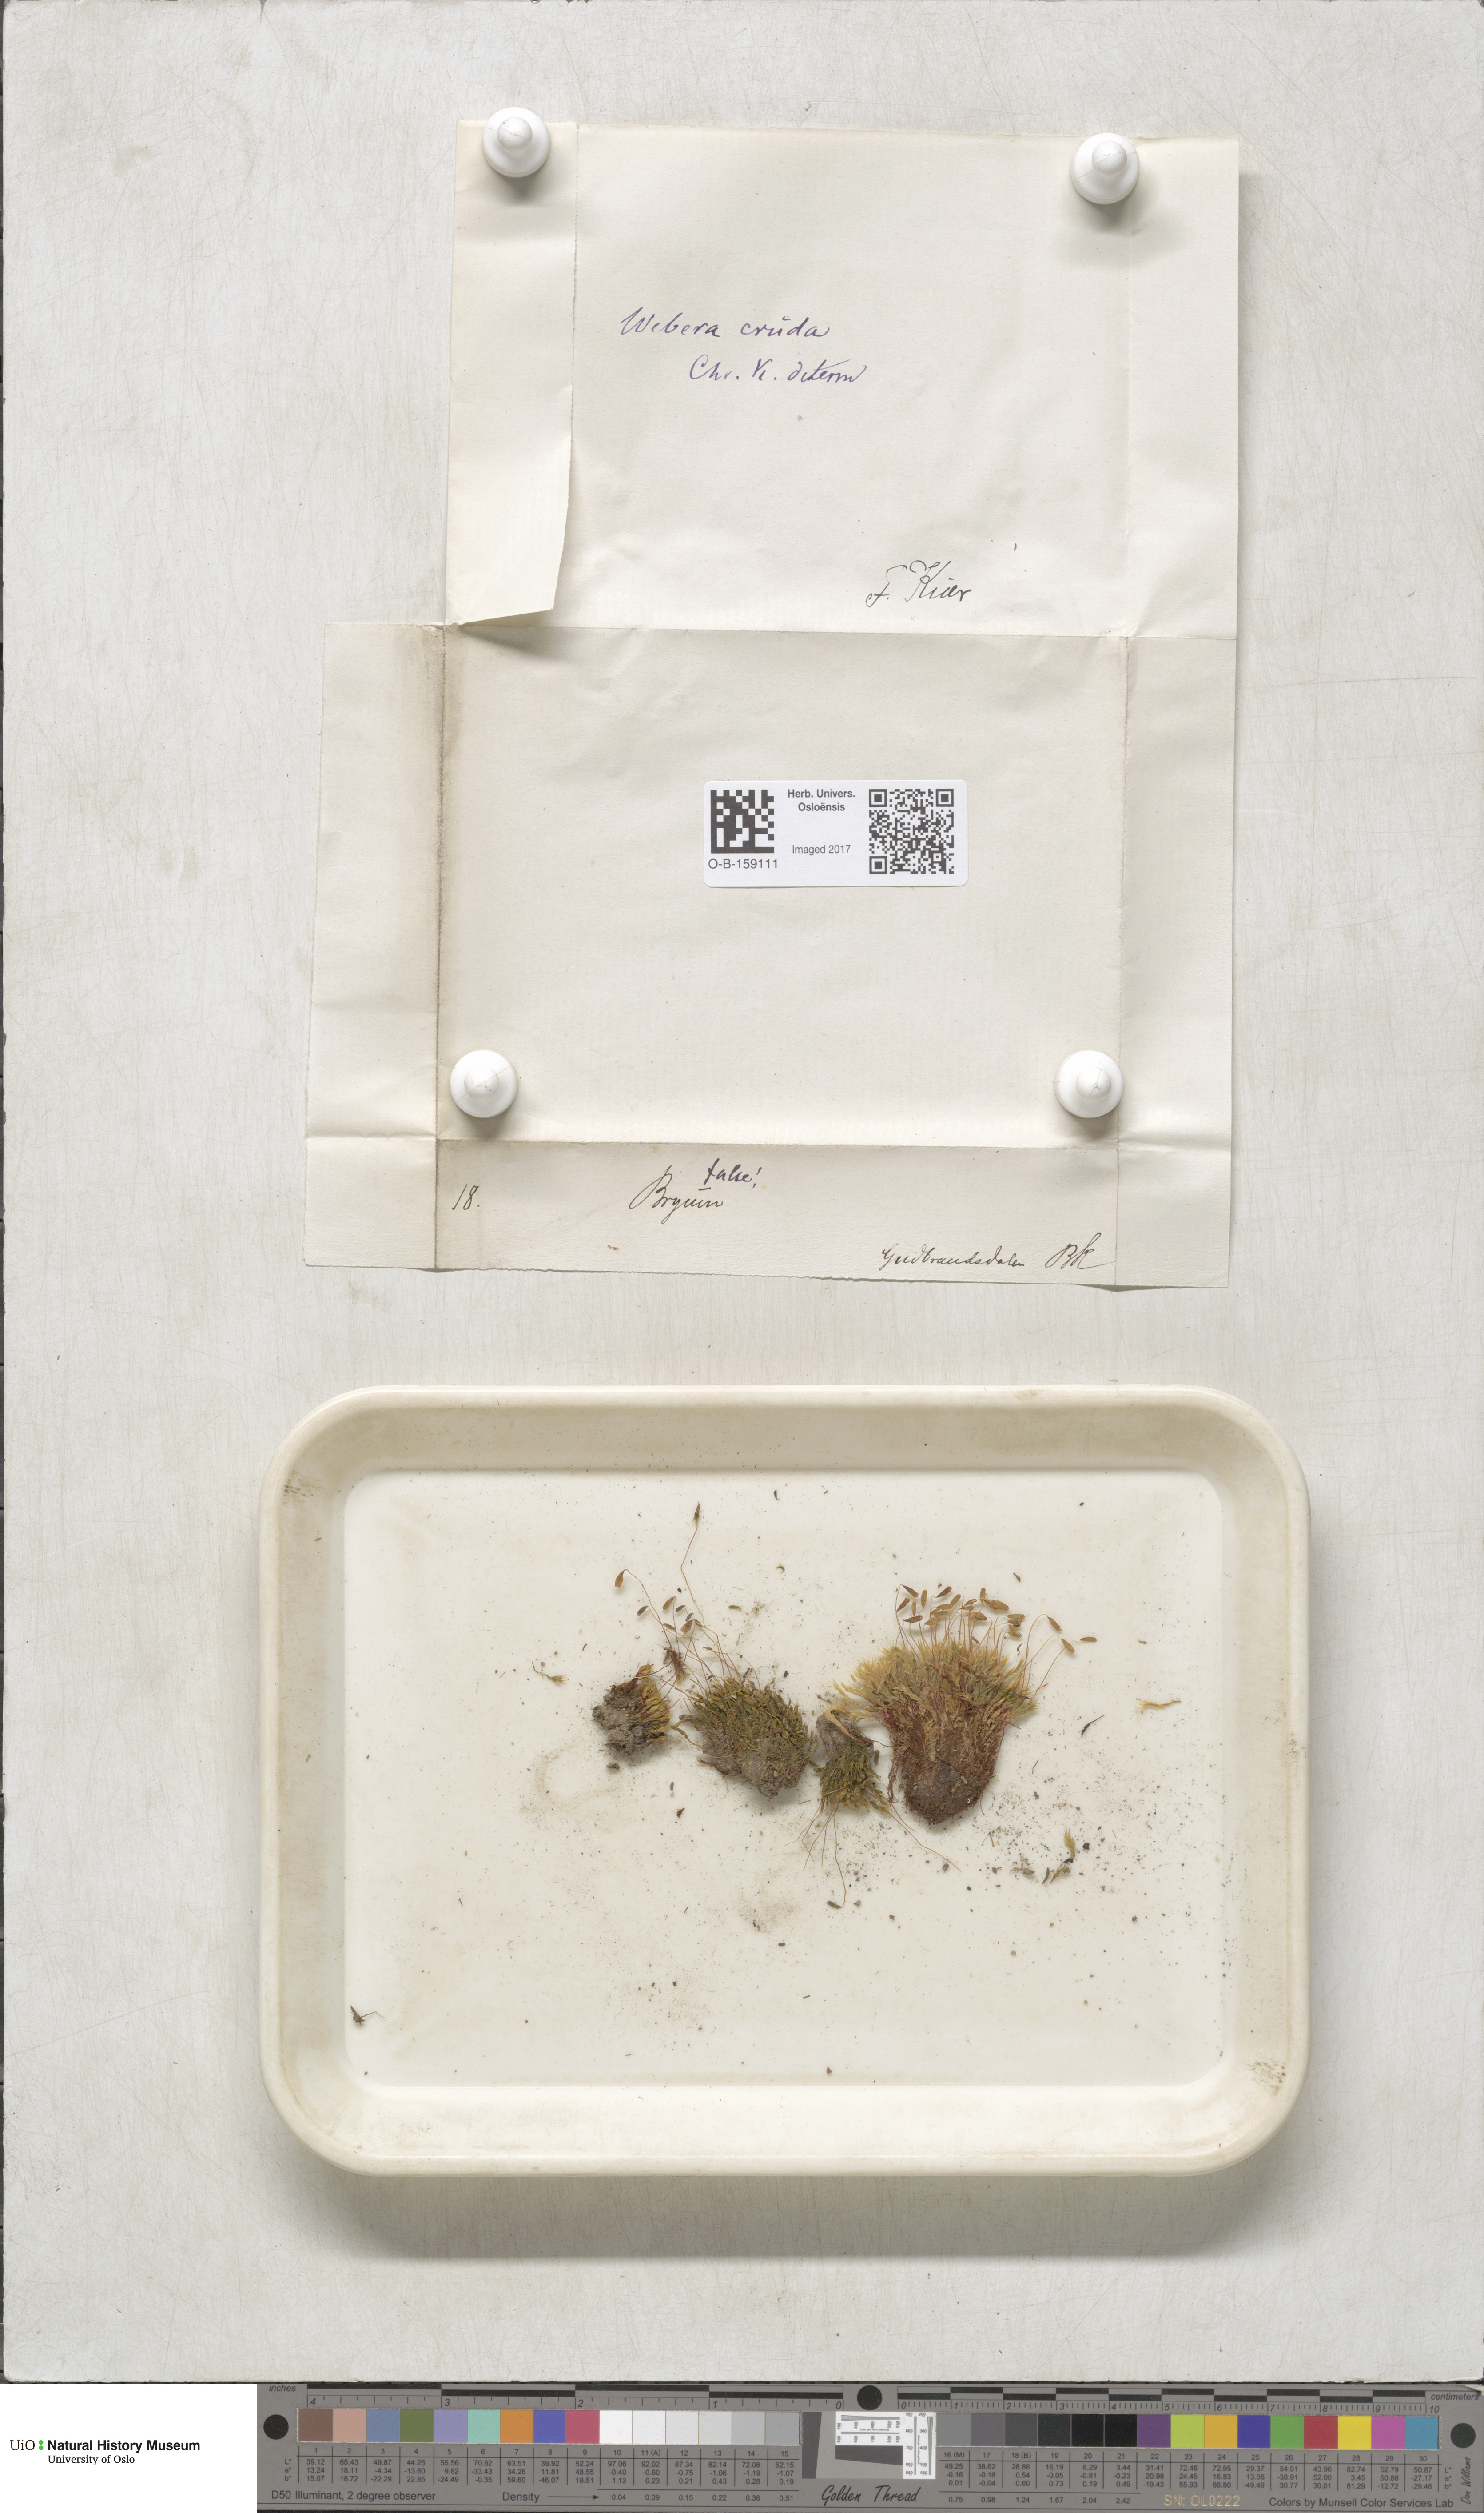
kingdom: Plantae
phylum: Bryophyta
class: Bryopsida
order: Bryales
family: Mniaceae
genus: Pohlia
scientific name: Pohlia cruda
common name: Opal nodding moss
